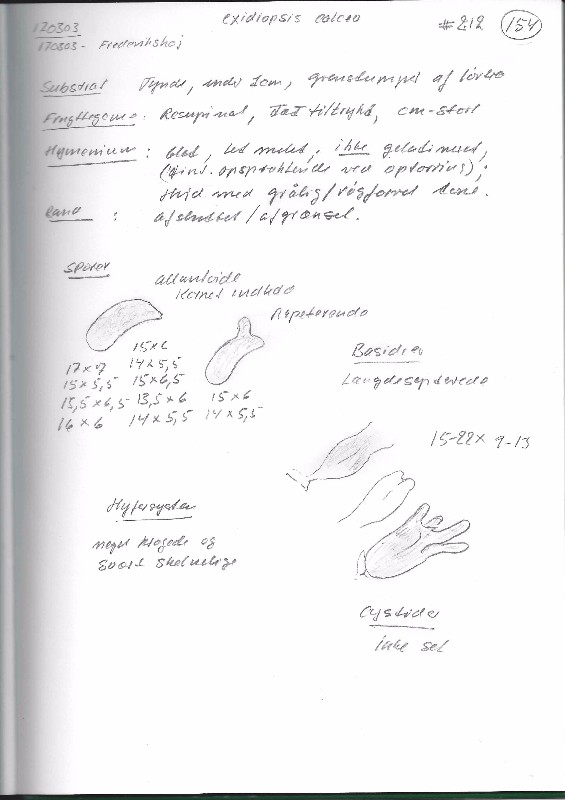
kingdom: Fungi
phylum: Basidiomycota
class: Agaricomycetes
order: Auriculariales
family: Auriculariaceae
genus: Alloexidiopsis
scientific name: Alloexidiopsis calcea
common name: kalkhvid bævrehinde
